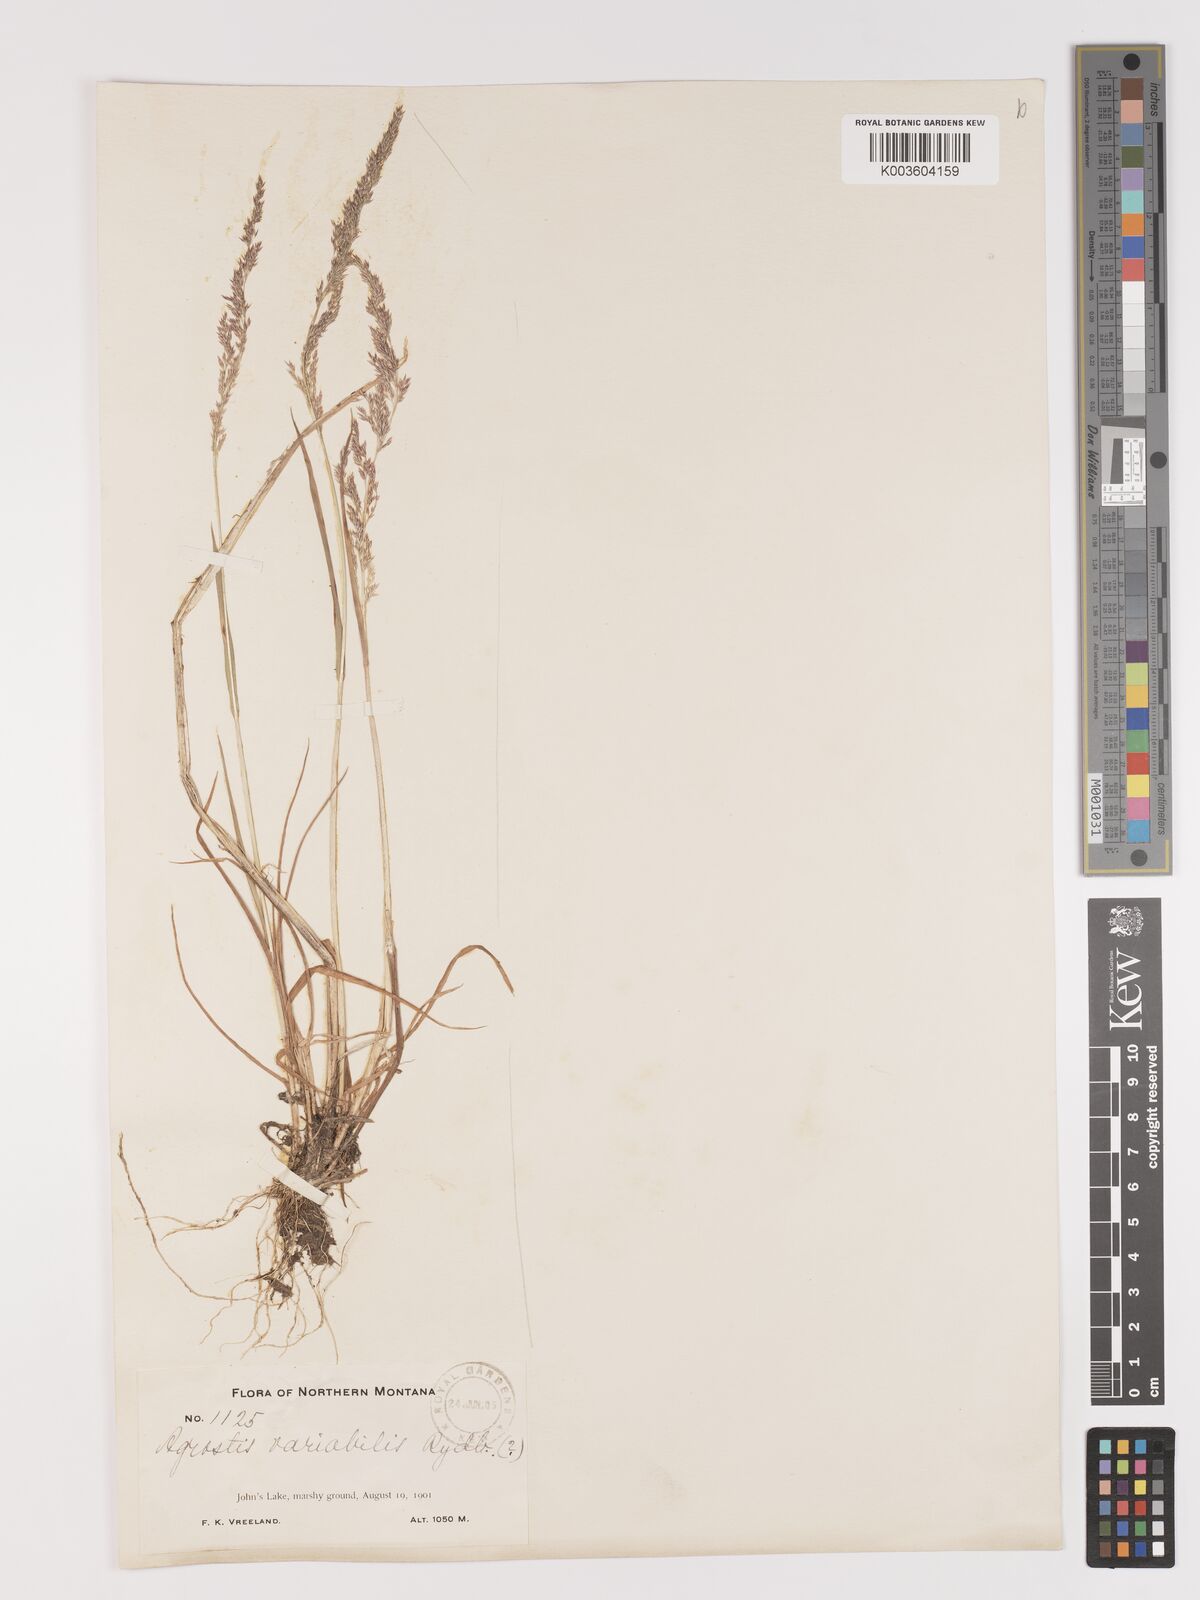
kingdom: Plantae
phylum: Tracheophyta
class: Liliopsida
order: Poales
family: Poaceae
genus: Agrostis
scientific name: Agrostis rossiae
